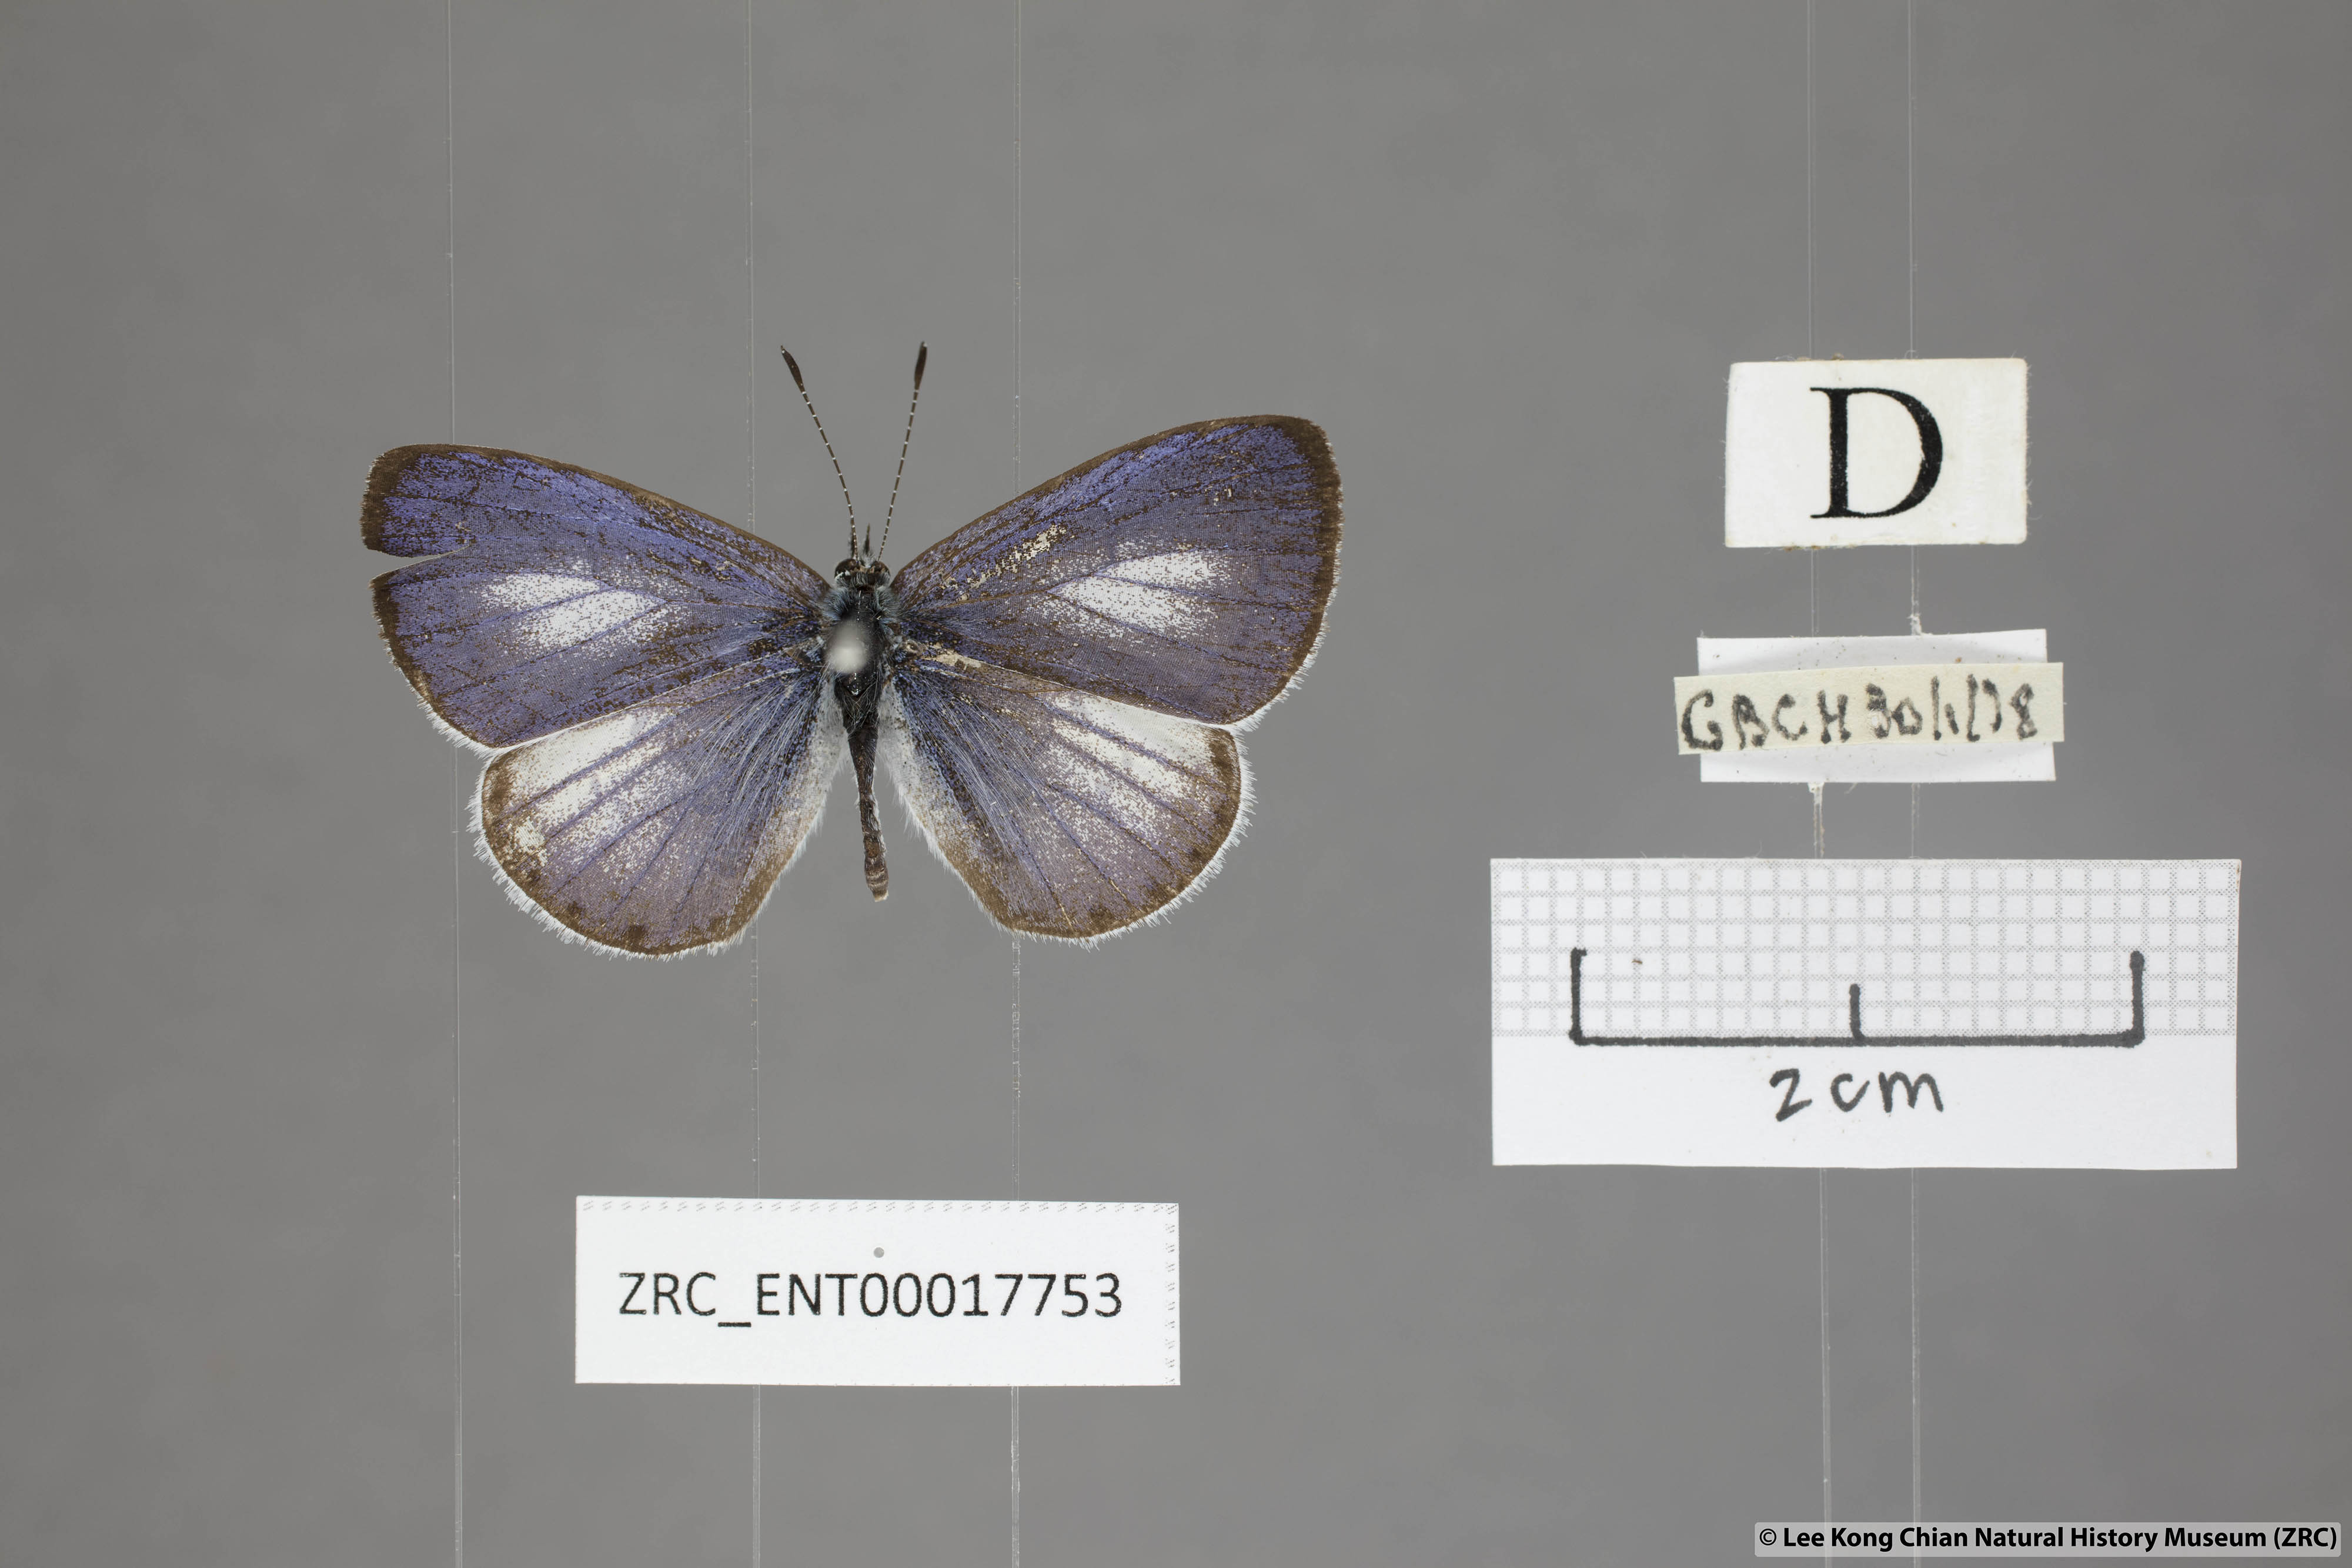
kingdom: Animalia
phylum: Arthropoda
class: Insecta
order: Lepidoptera
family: Lycaenidae
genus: Udara
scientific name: Udara toxopeusi
